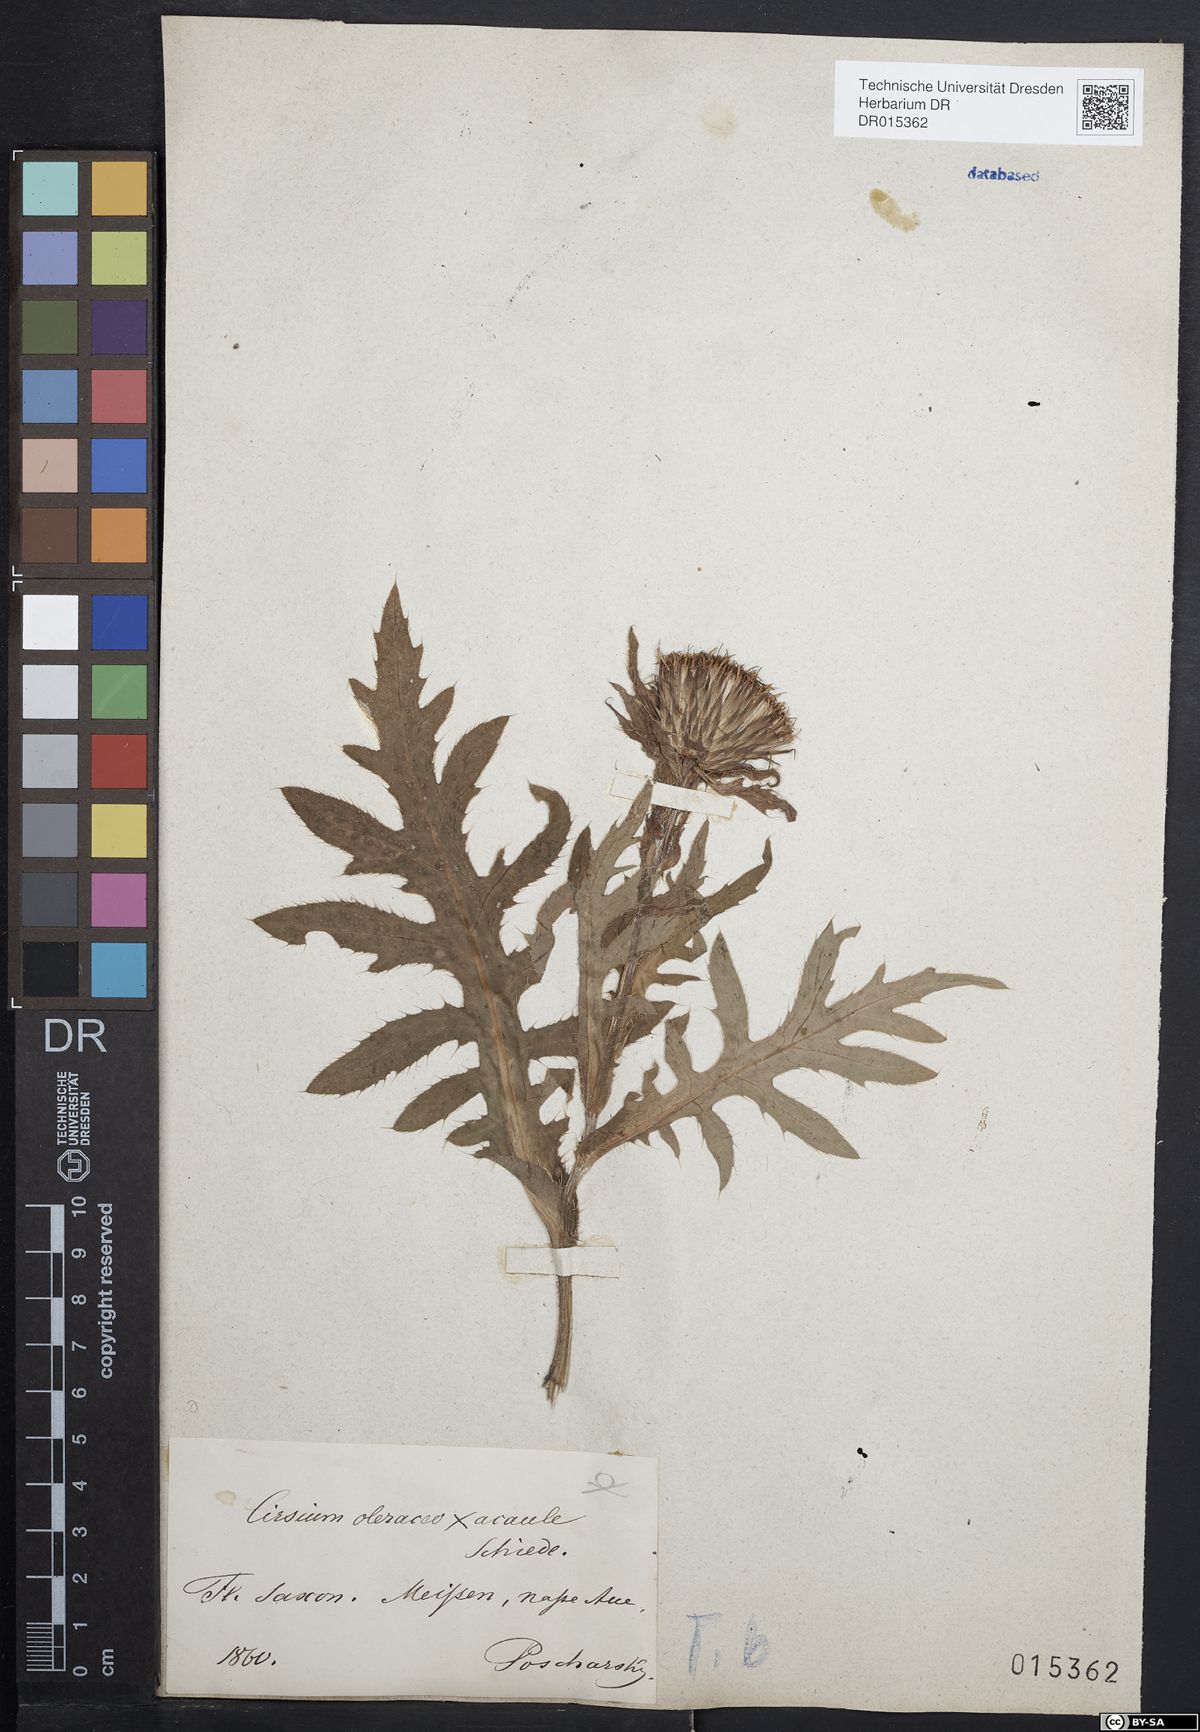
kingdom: Plantae
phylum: Tracheophyta
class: Magnoliopsida
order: Asterales
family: Asteraceae
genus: Cirsium
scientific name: Cirsium rigens
